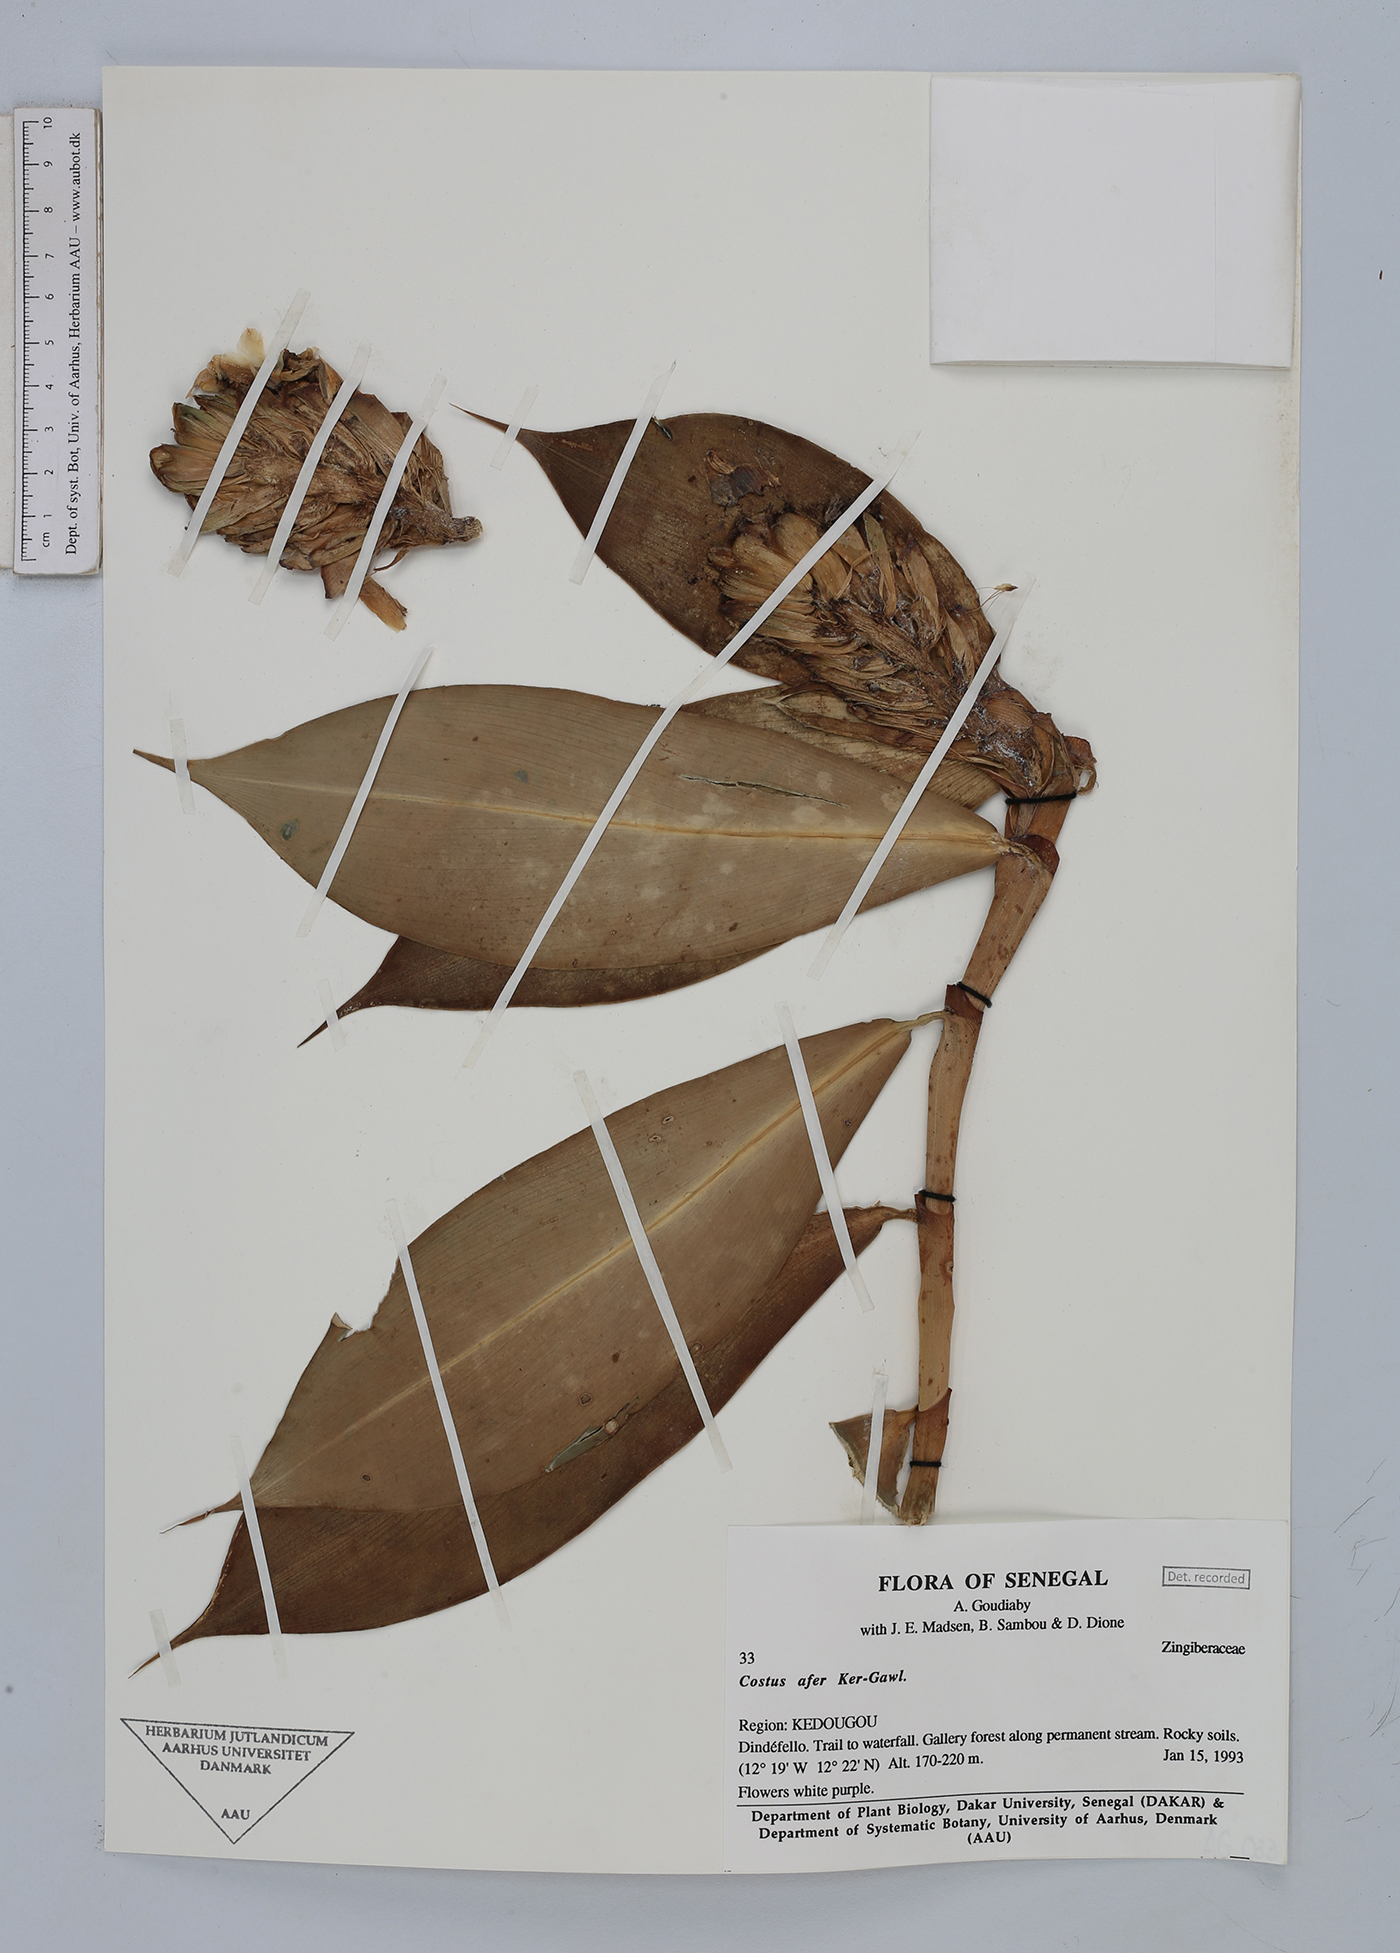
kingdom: Plantae
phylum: Tracheophyta
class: Liliopsida
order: Zingiberales
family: Costaceae
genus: Costus
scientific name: Costus afer
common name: Spiral-ginger
